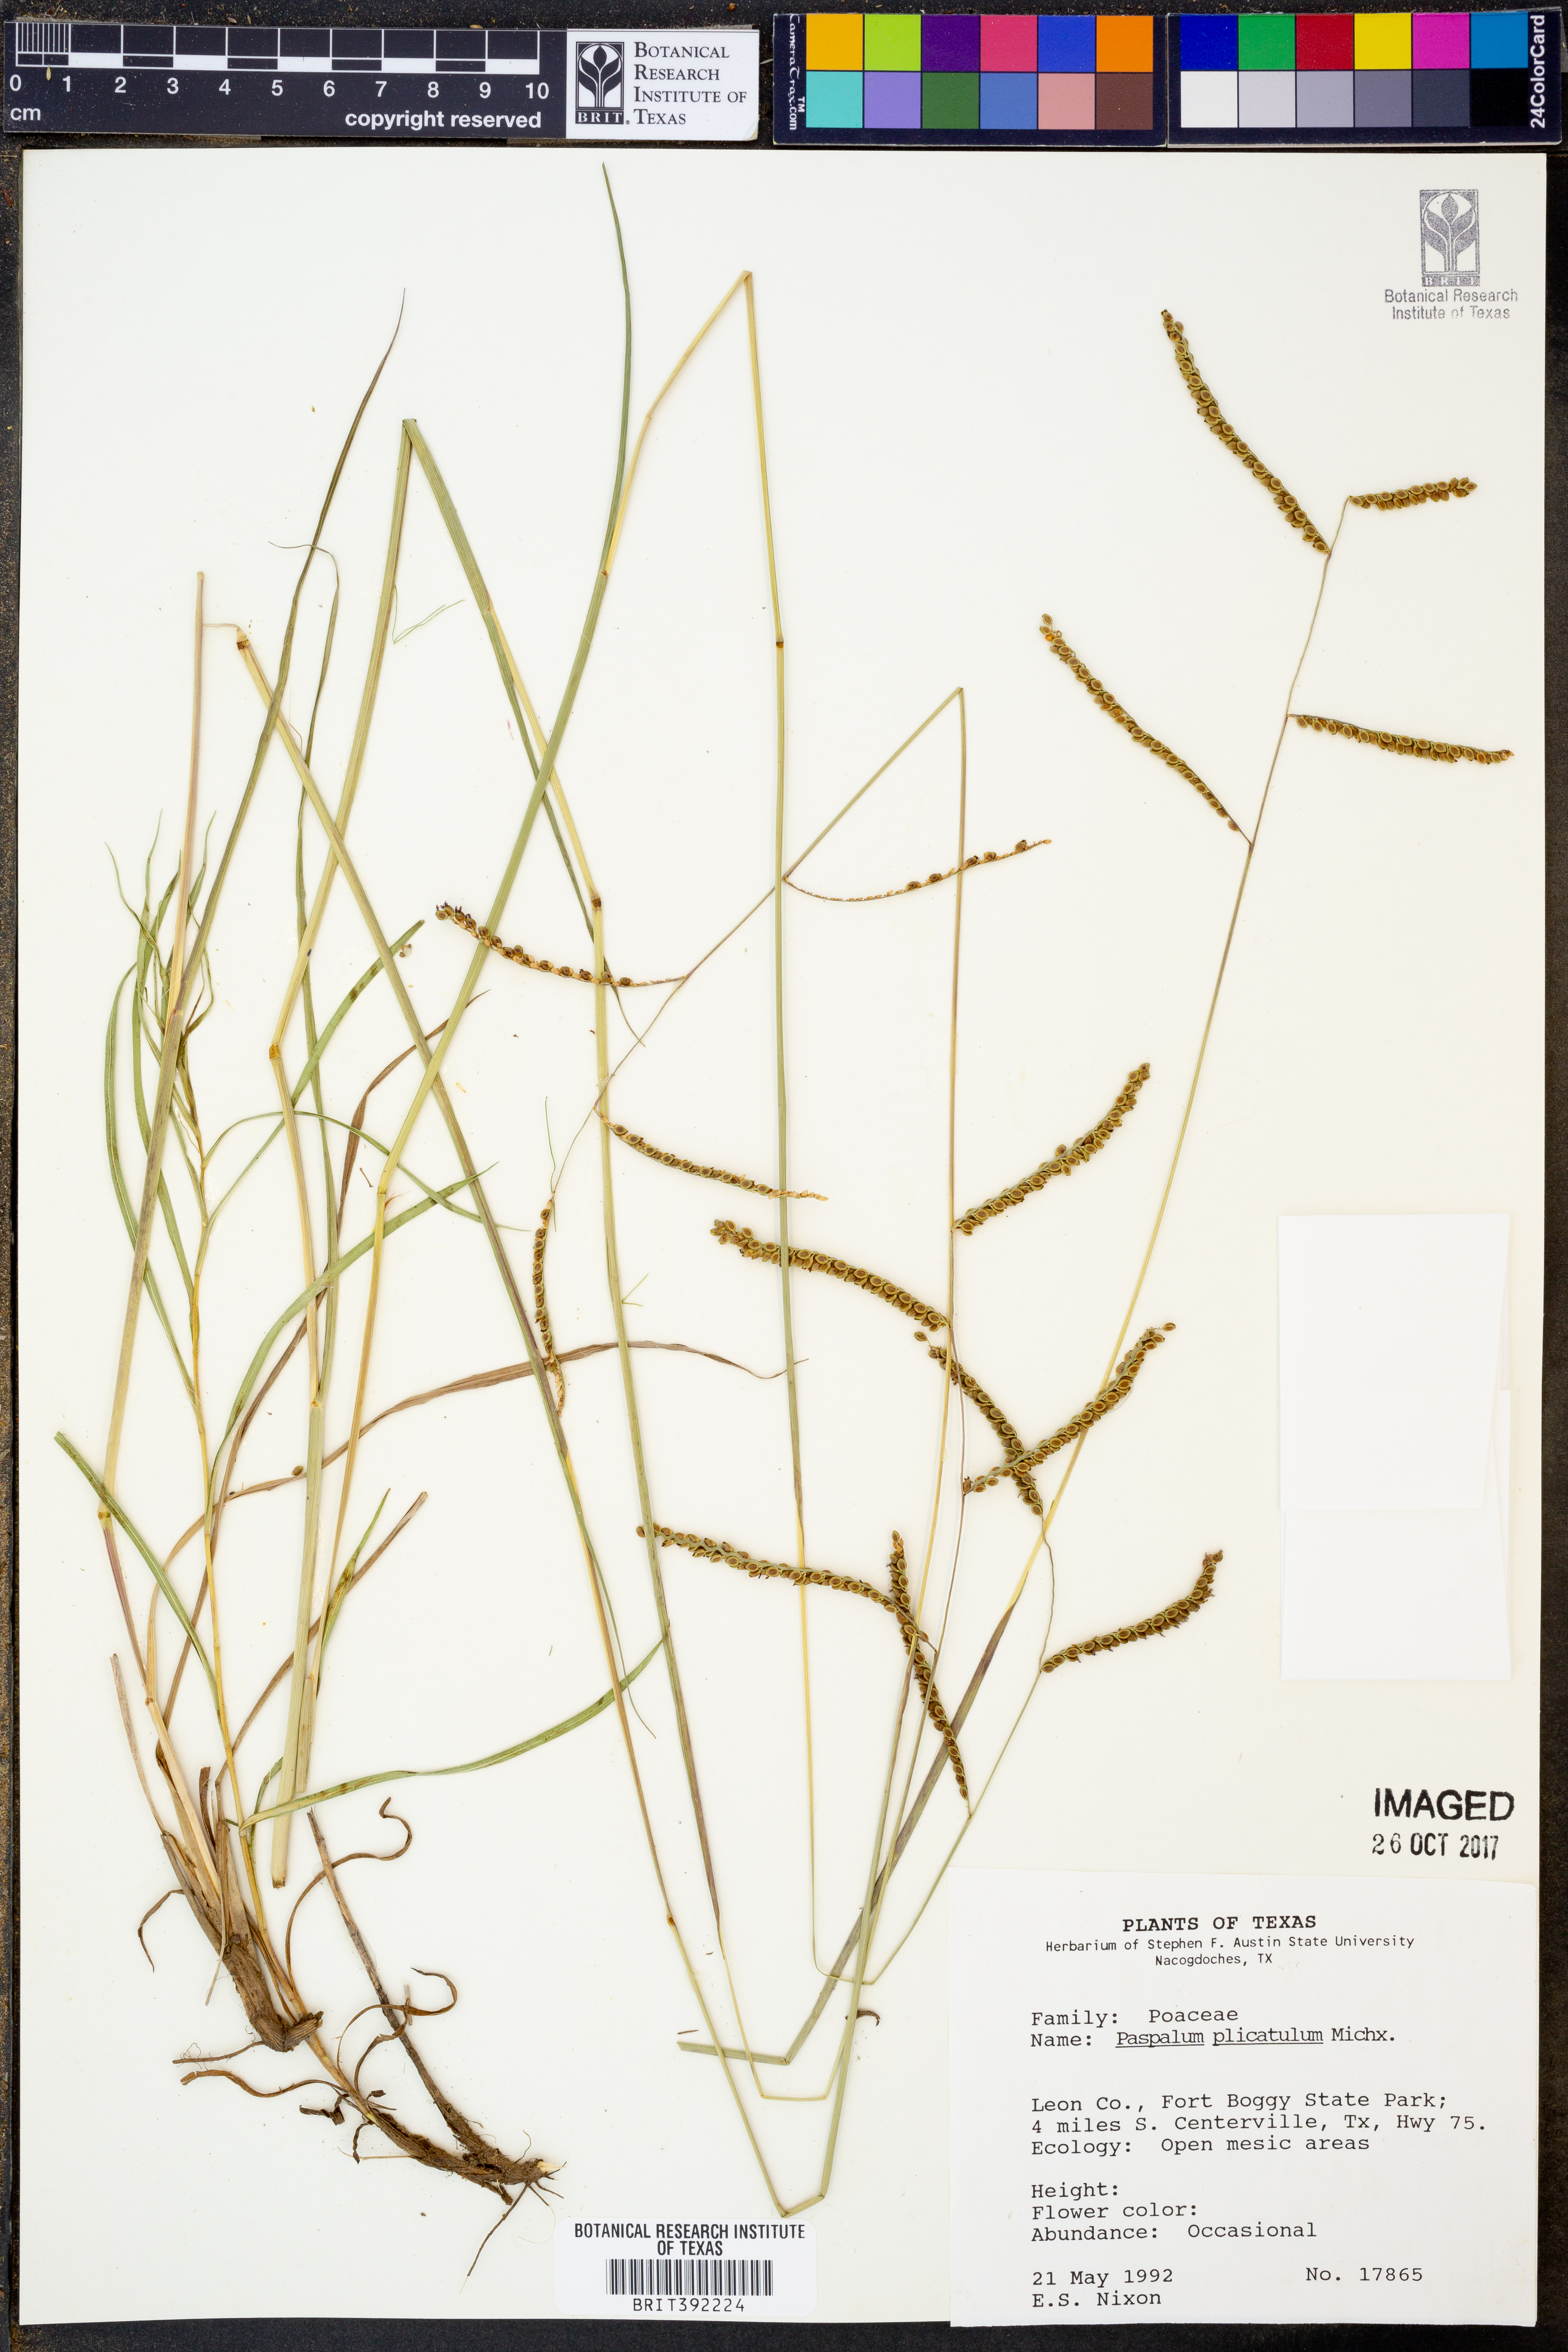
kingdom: Plantae
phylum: Tracheophyta
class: Liliopsida
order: Poales
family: Poaceae
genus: Paspalum
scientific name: Paspalum plicatulum
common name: Top paspalum
